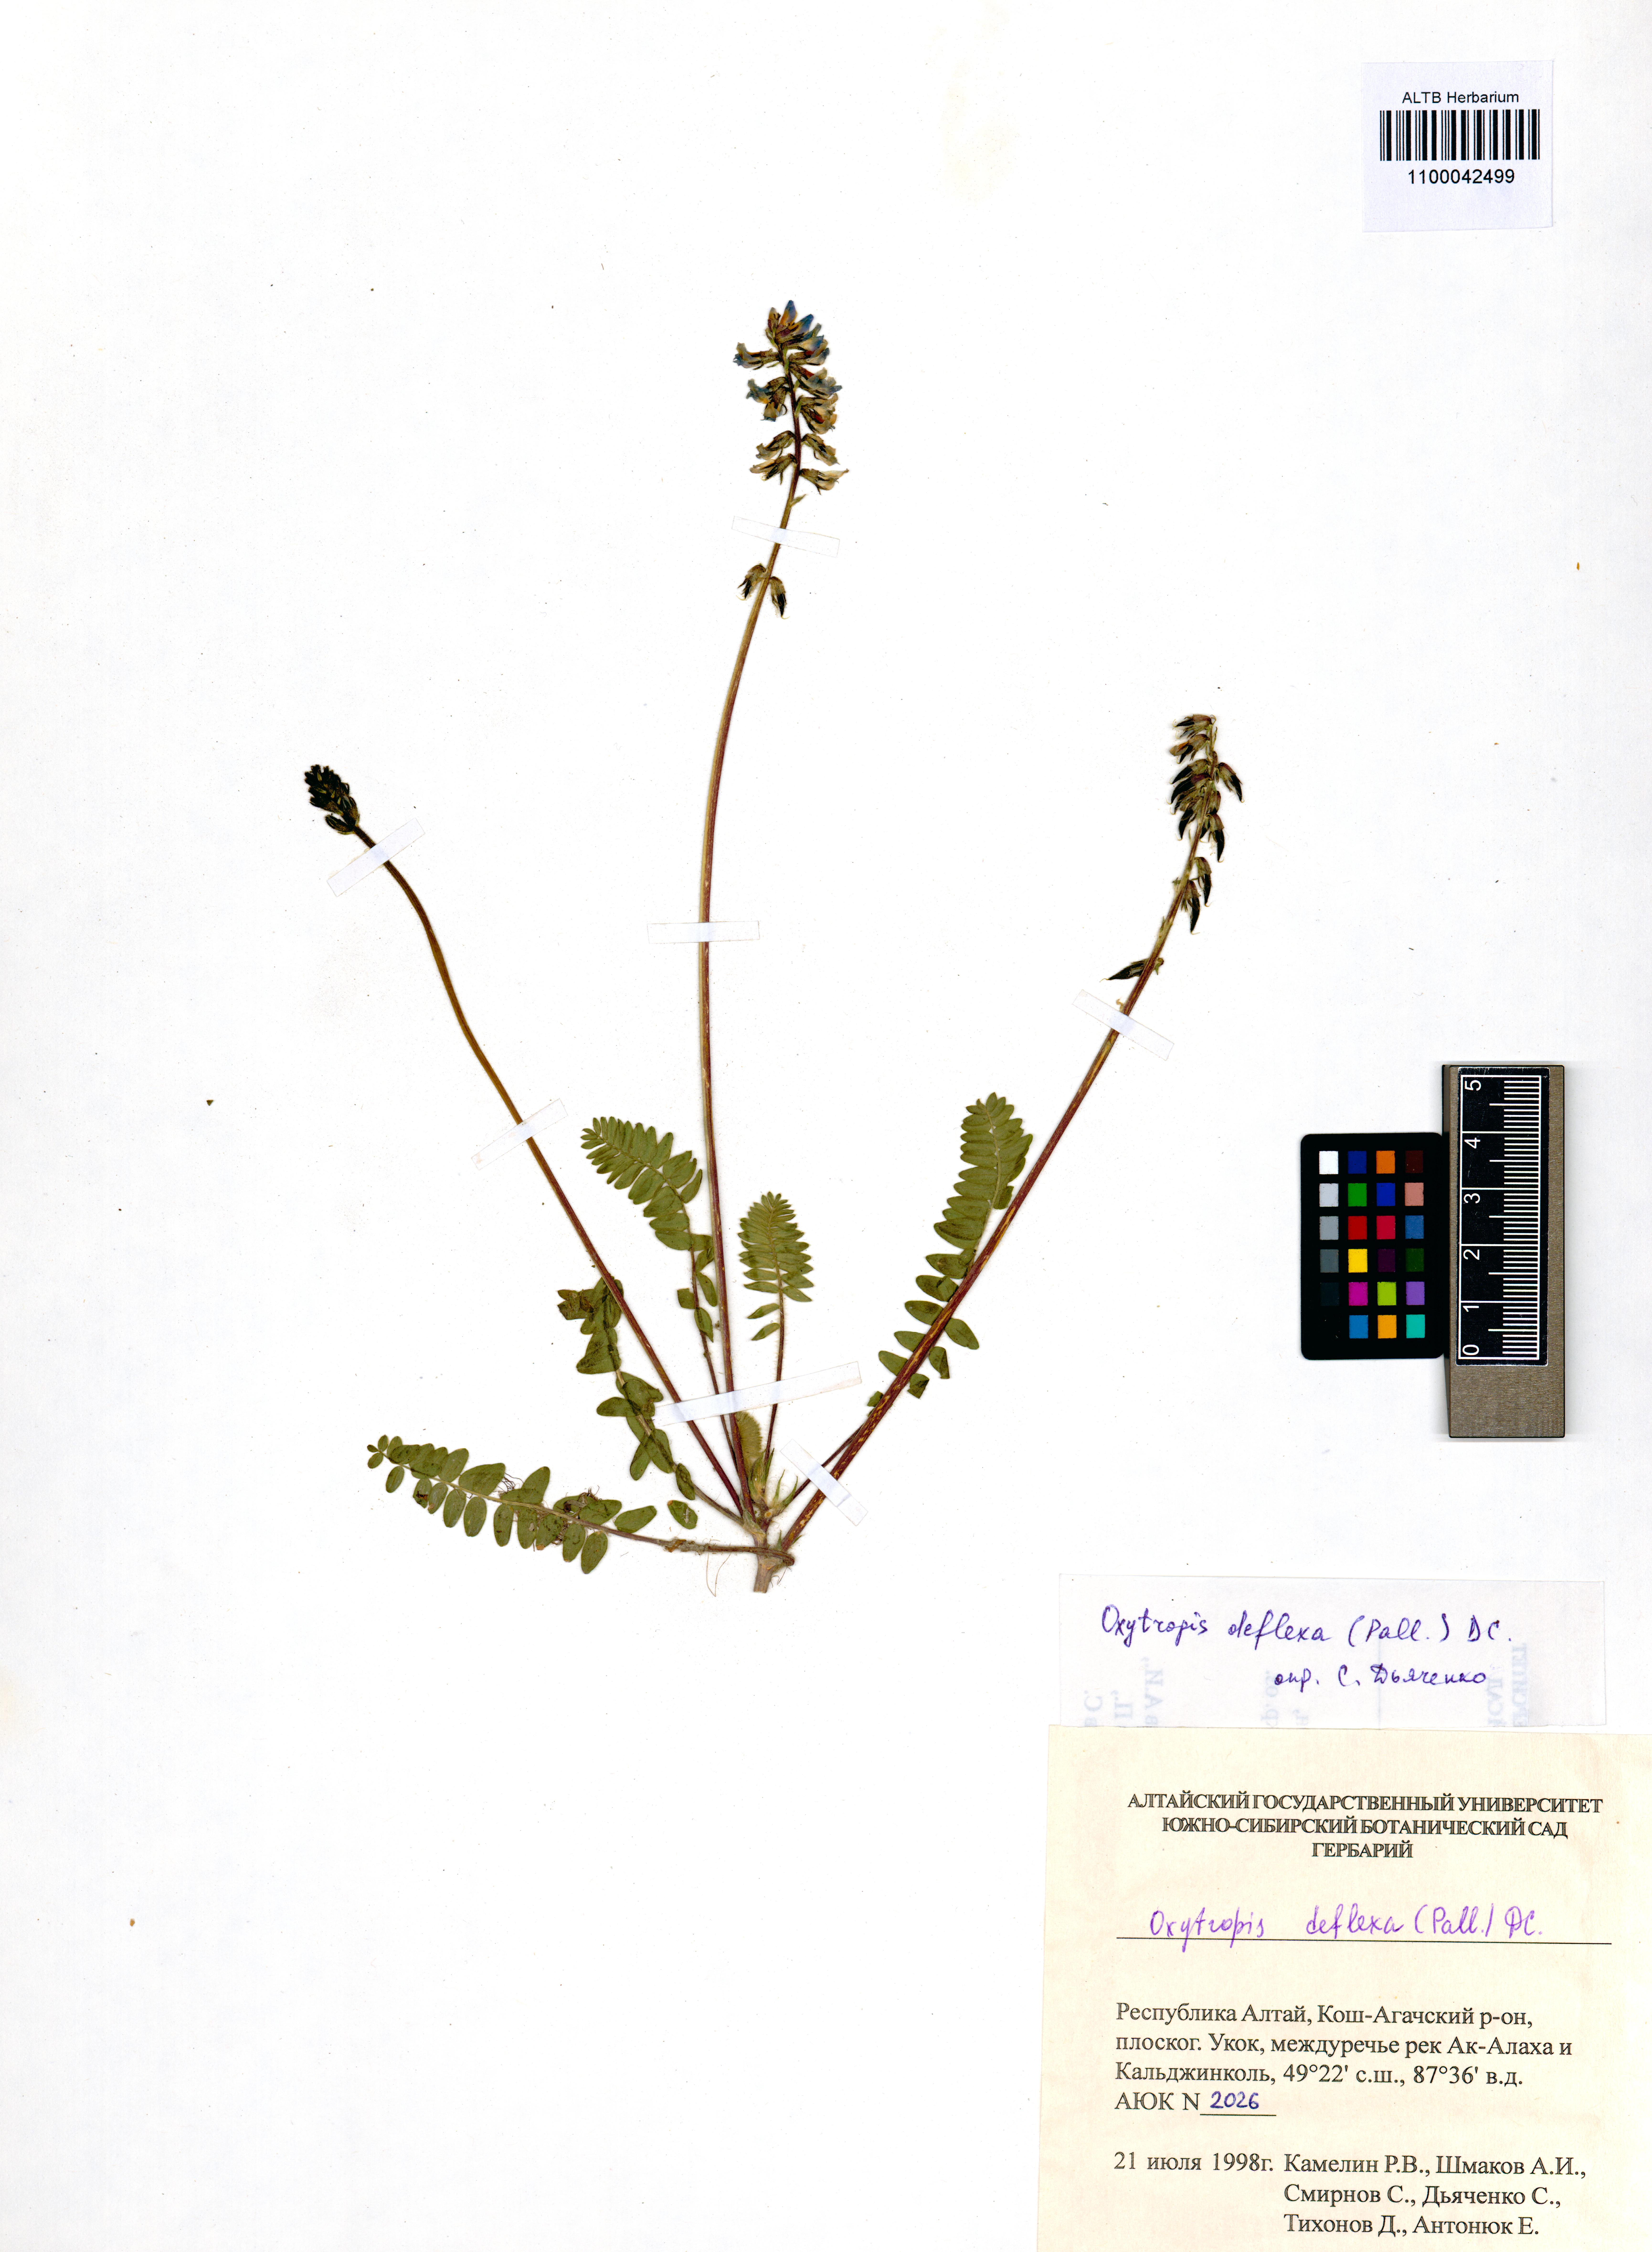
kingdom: Plantae
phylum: Tracheophyta
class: Magnoliopsida
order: Fabales
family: Fabaceae
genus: Oxytropis
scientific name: Oxytropis deflexa
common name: Stemmed oxytrope
